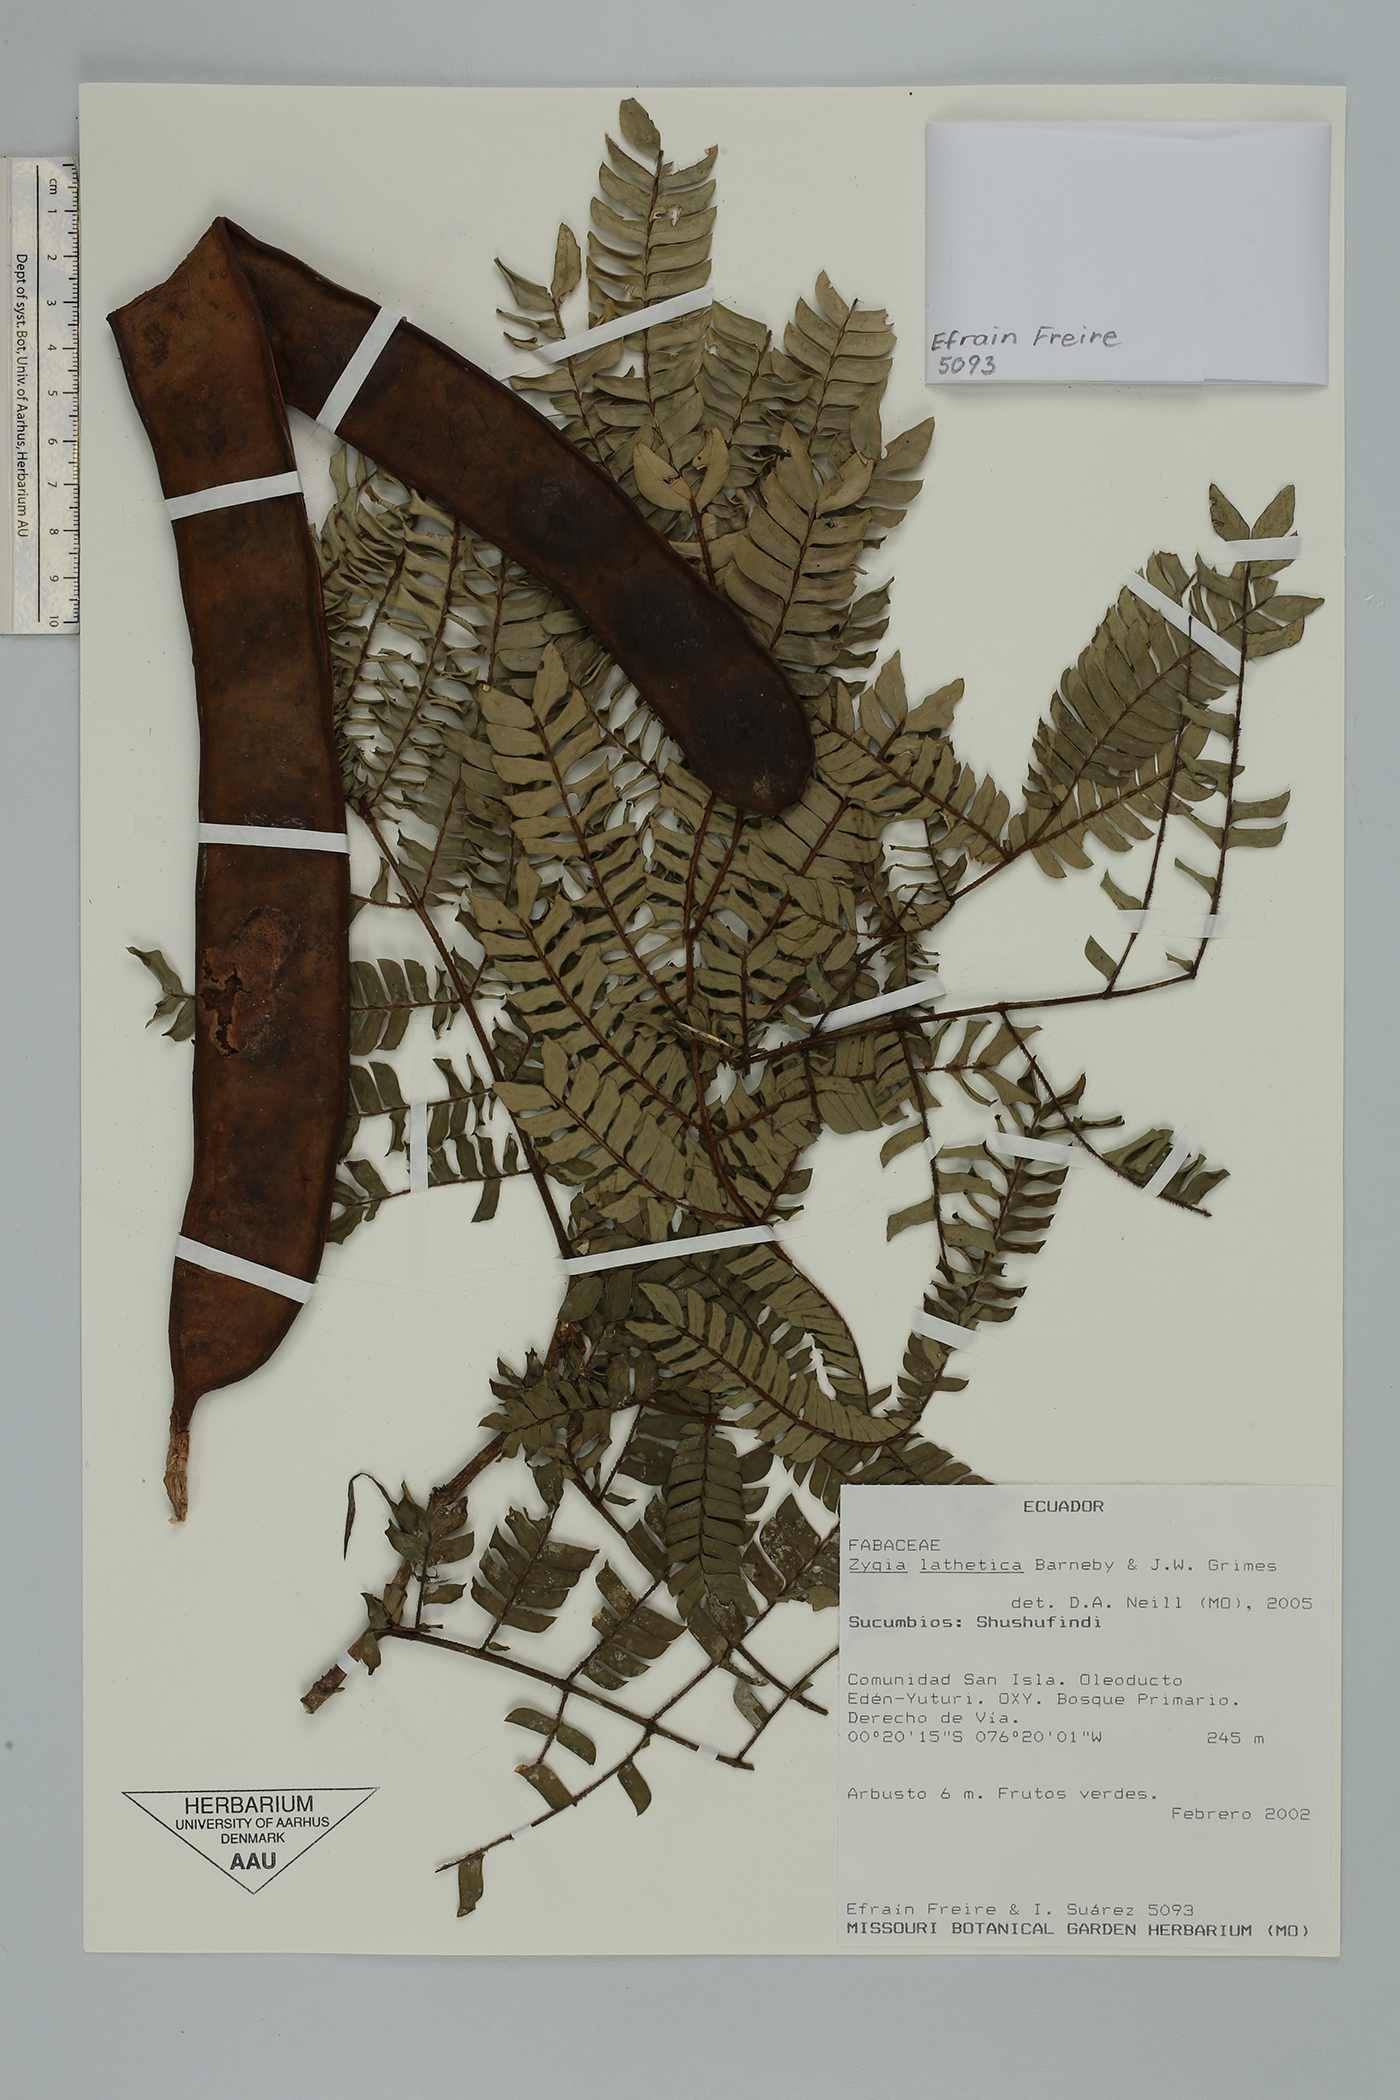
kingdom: Plantae
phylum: Tracheophyta
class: Magnoliopsida
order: Fabales
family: Fabaceae
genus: Zygia
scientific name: Zygia lathetica
